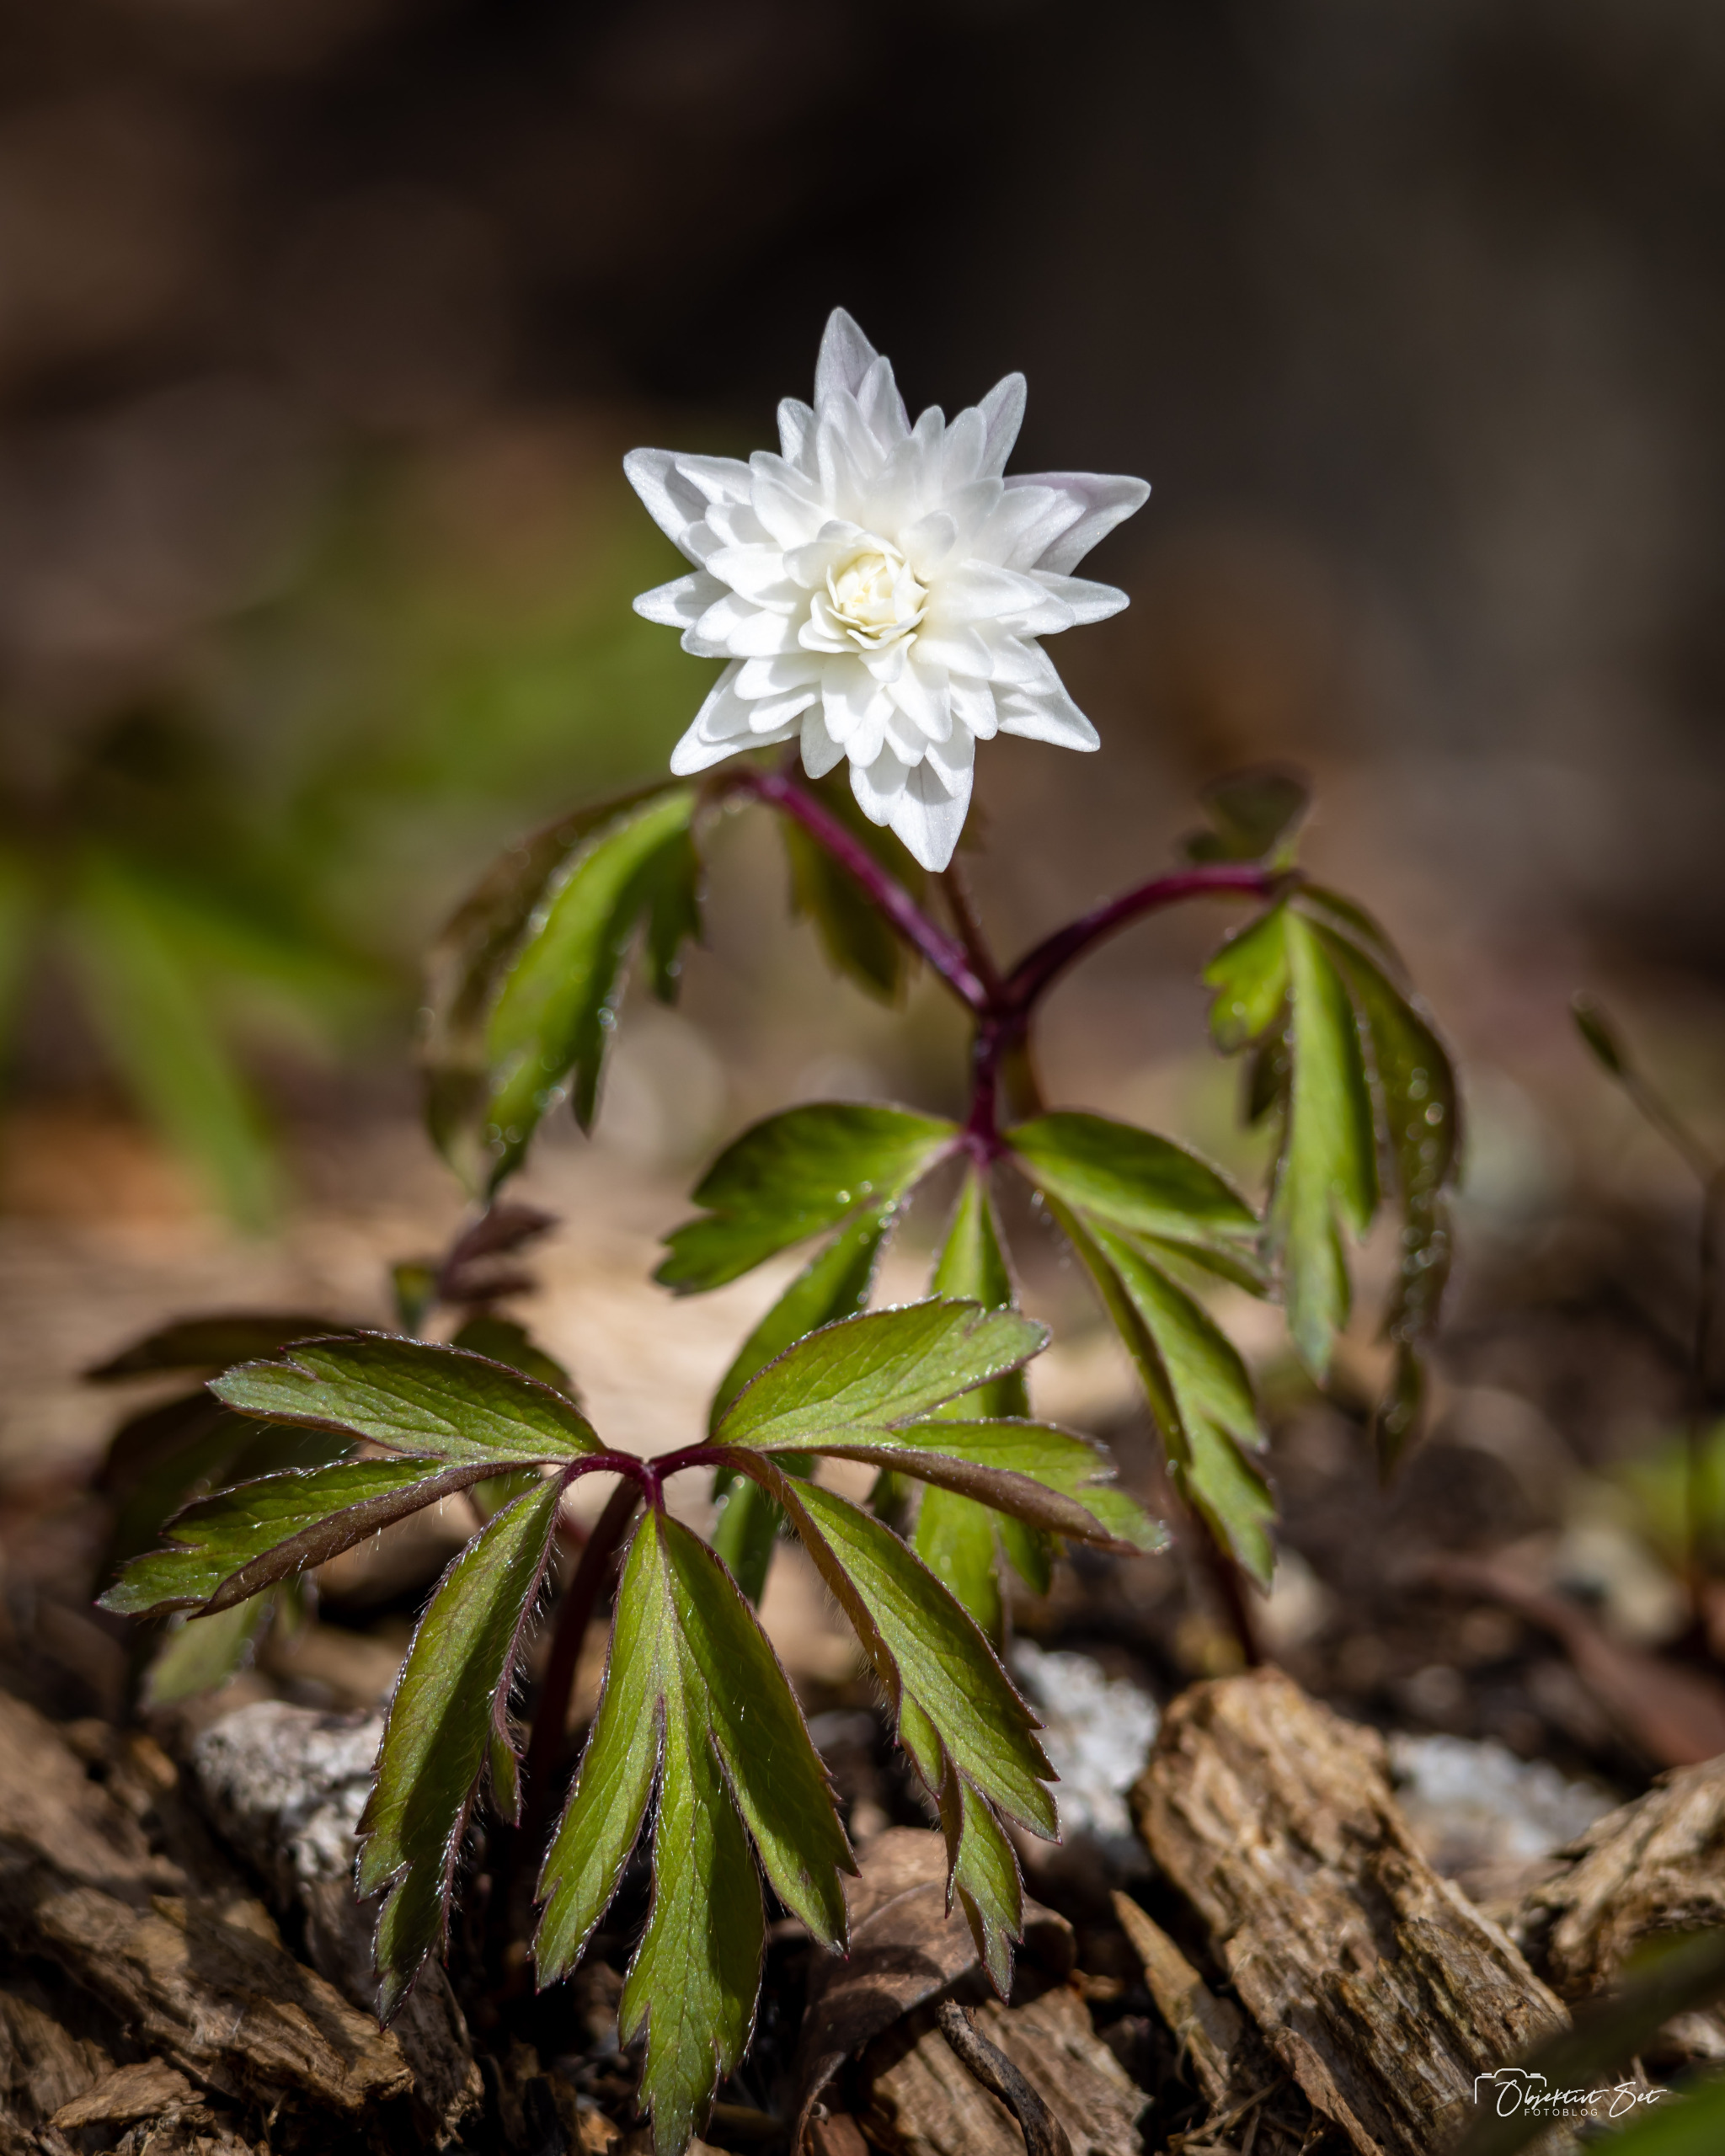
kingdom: Plantae
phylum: Tracheophyta
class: Magnoliopsida
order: Ranunculales
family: Ranunculaceae
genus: Anemone
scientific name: Anemone nemorosa
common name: Hvid anemone
